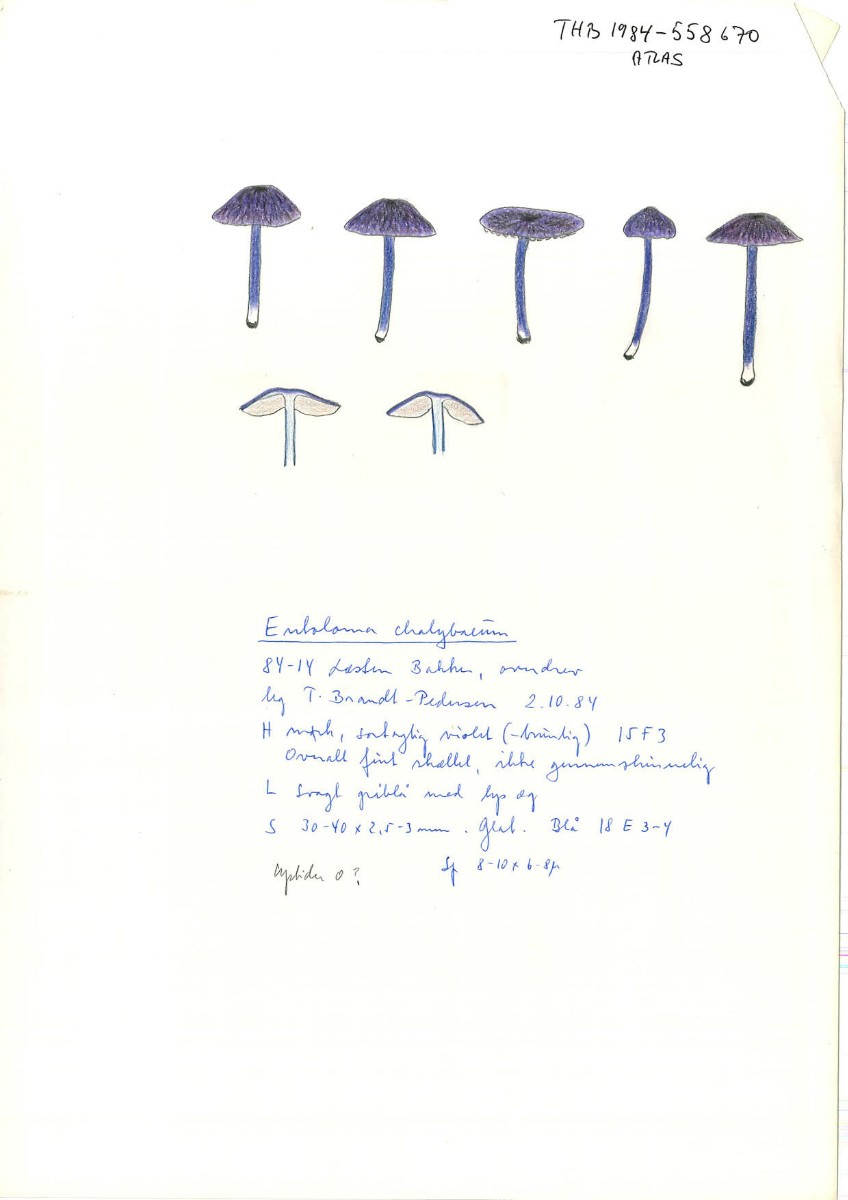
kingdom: Fungi
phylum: Basidiomycota
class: Agaricomycetes
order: Agaricales
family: Entolomataceae
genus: Entoloma
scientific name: Entoloma chalybeum
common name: blåbladet rødblad
